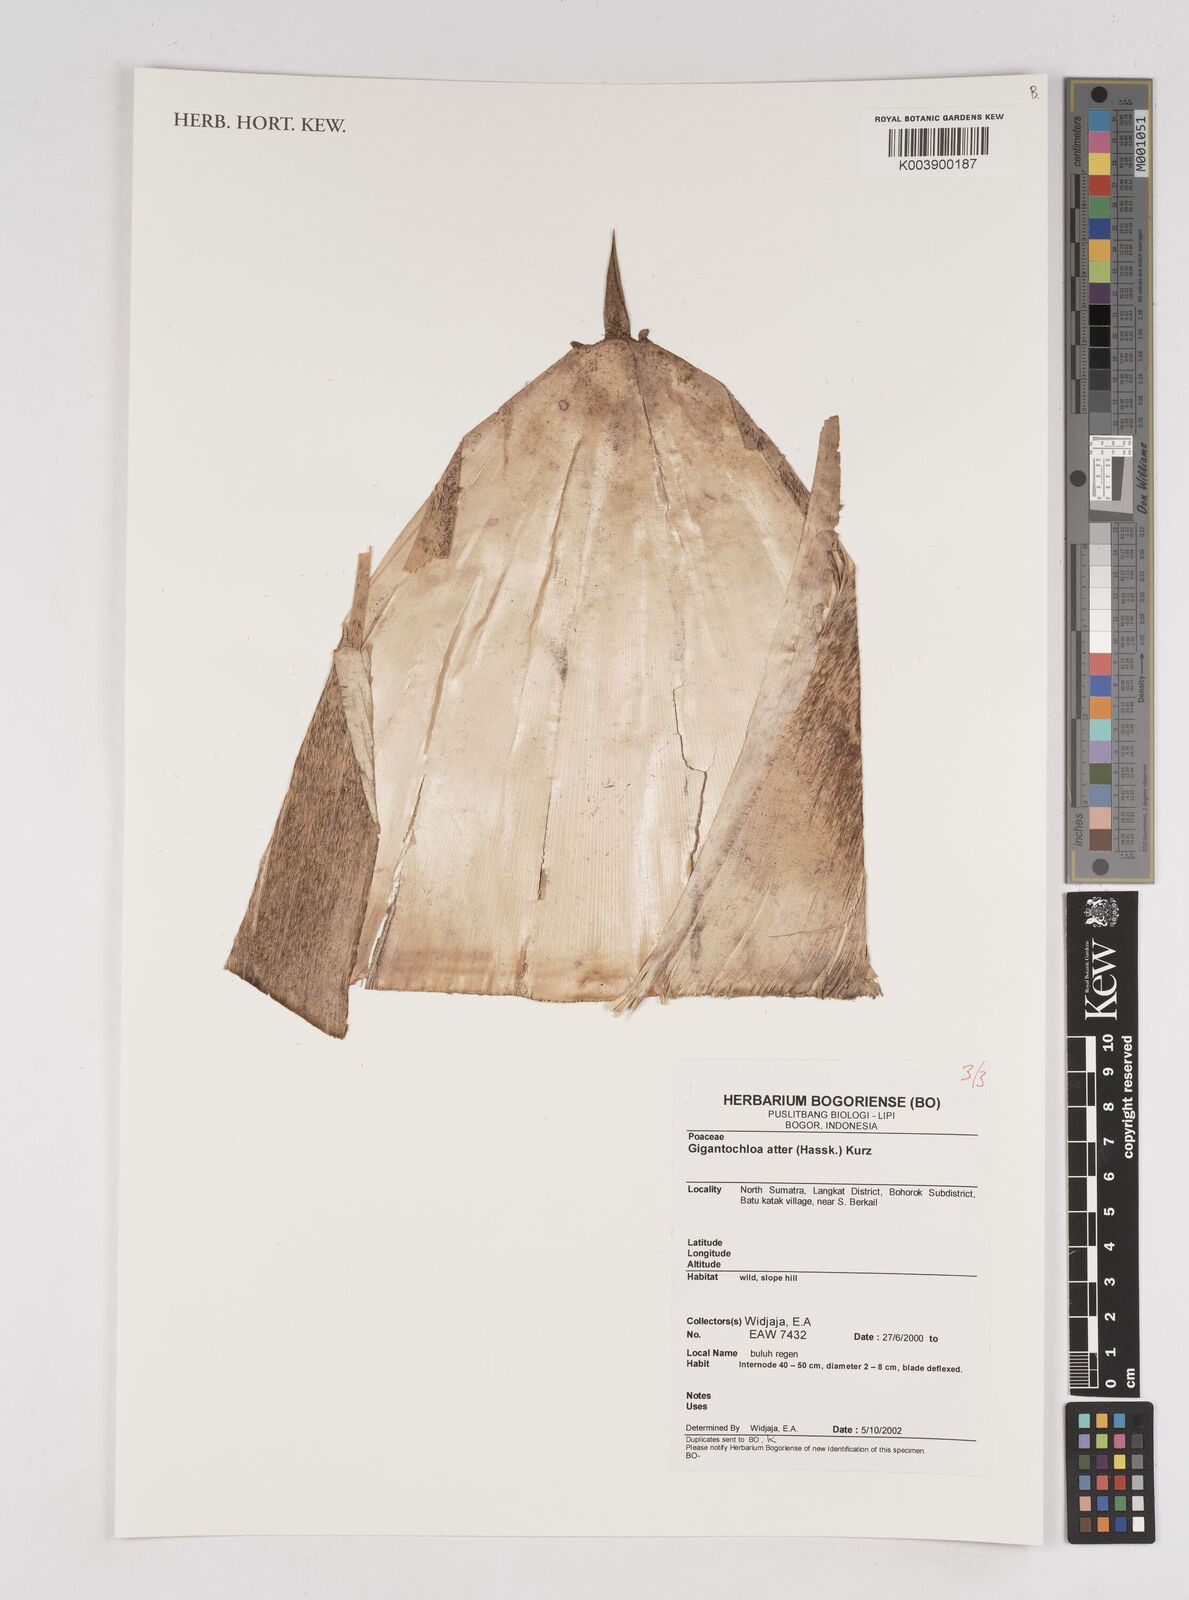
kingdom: Plantae
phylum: Tracheophyta
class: Liliopsida
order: Poales
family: Poaceae
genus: Gigantochloa
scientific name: Gigantochloa atter
